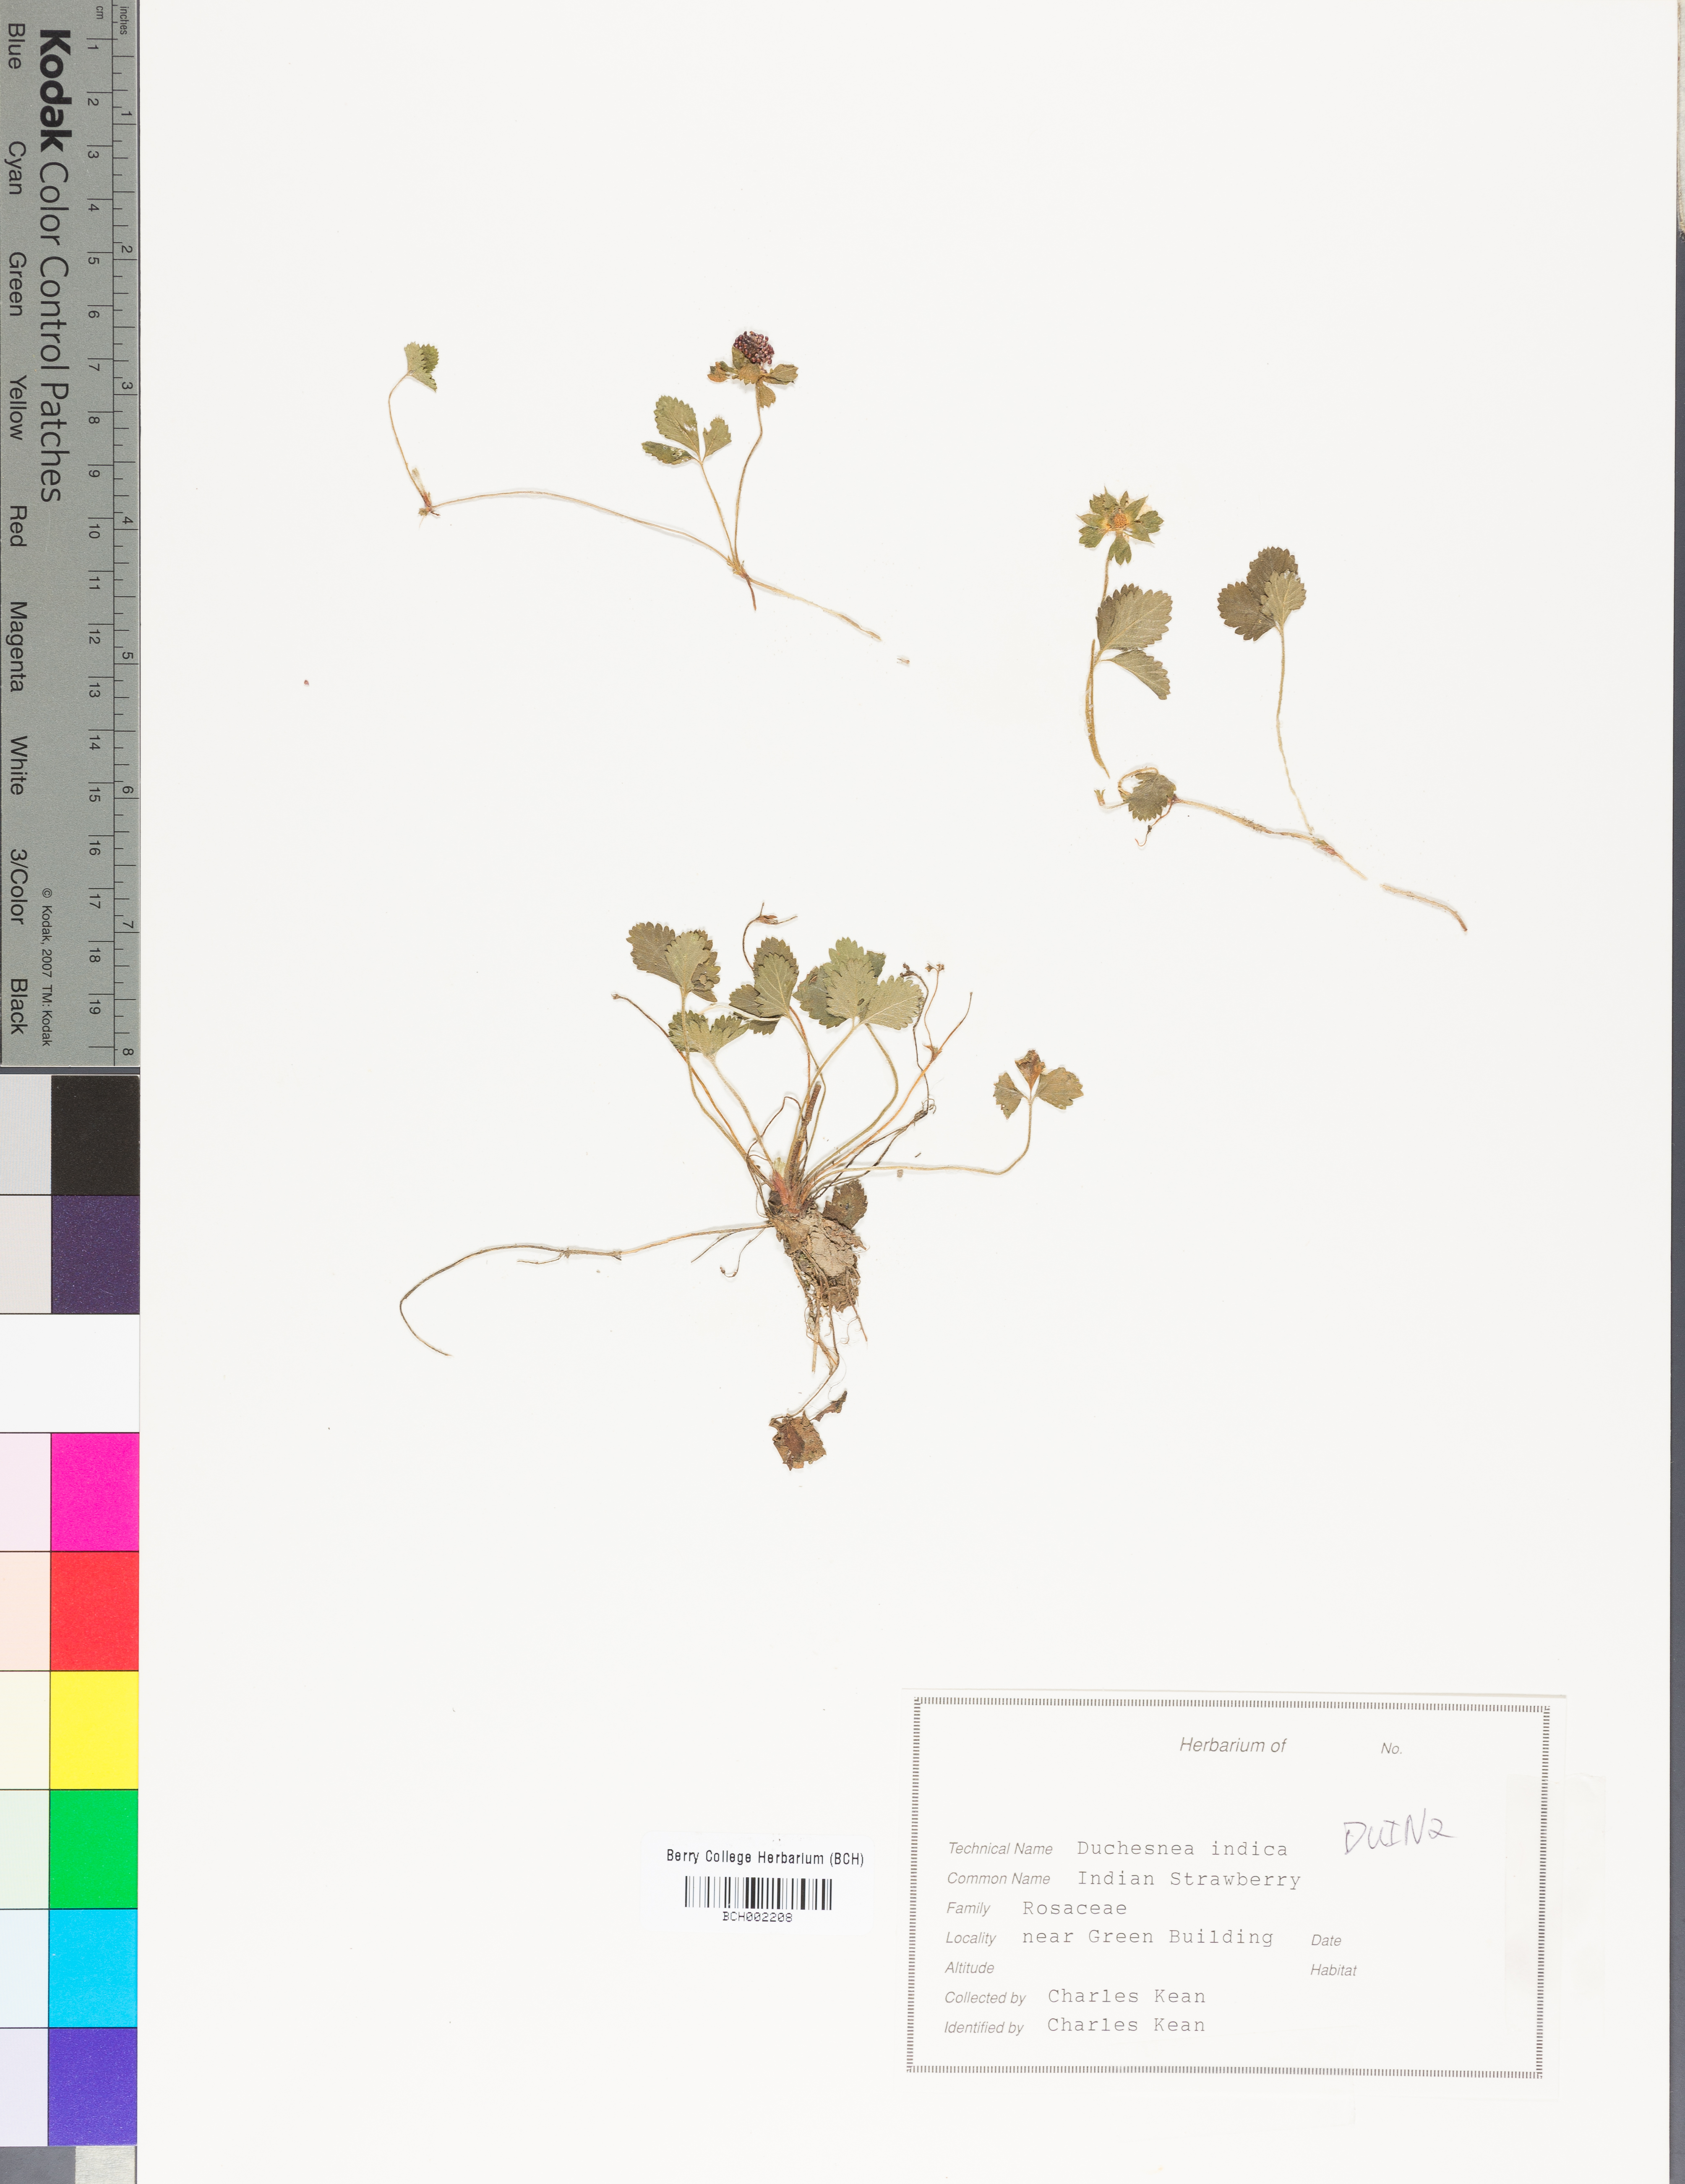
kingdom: Plantae
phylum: Tracheophyta
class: Magnoliopsida
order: Rosales
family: Rosaceae
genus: Potentilla
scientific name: Potentilla indica
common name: Yellow-flowered strawberry
